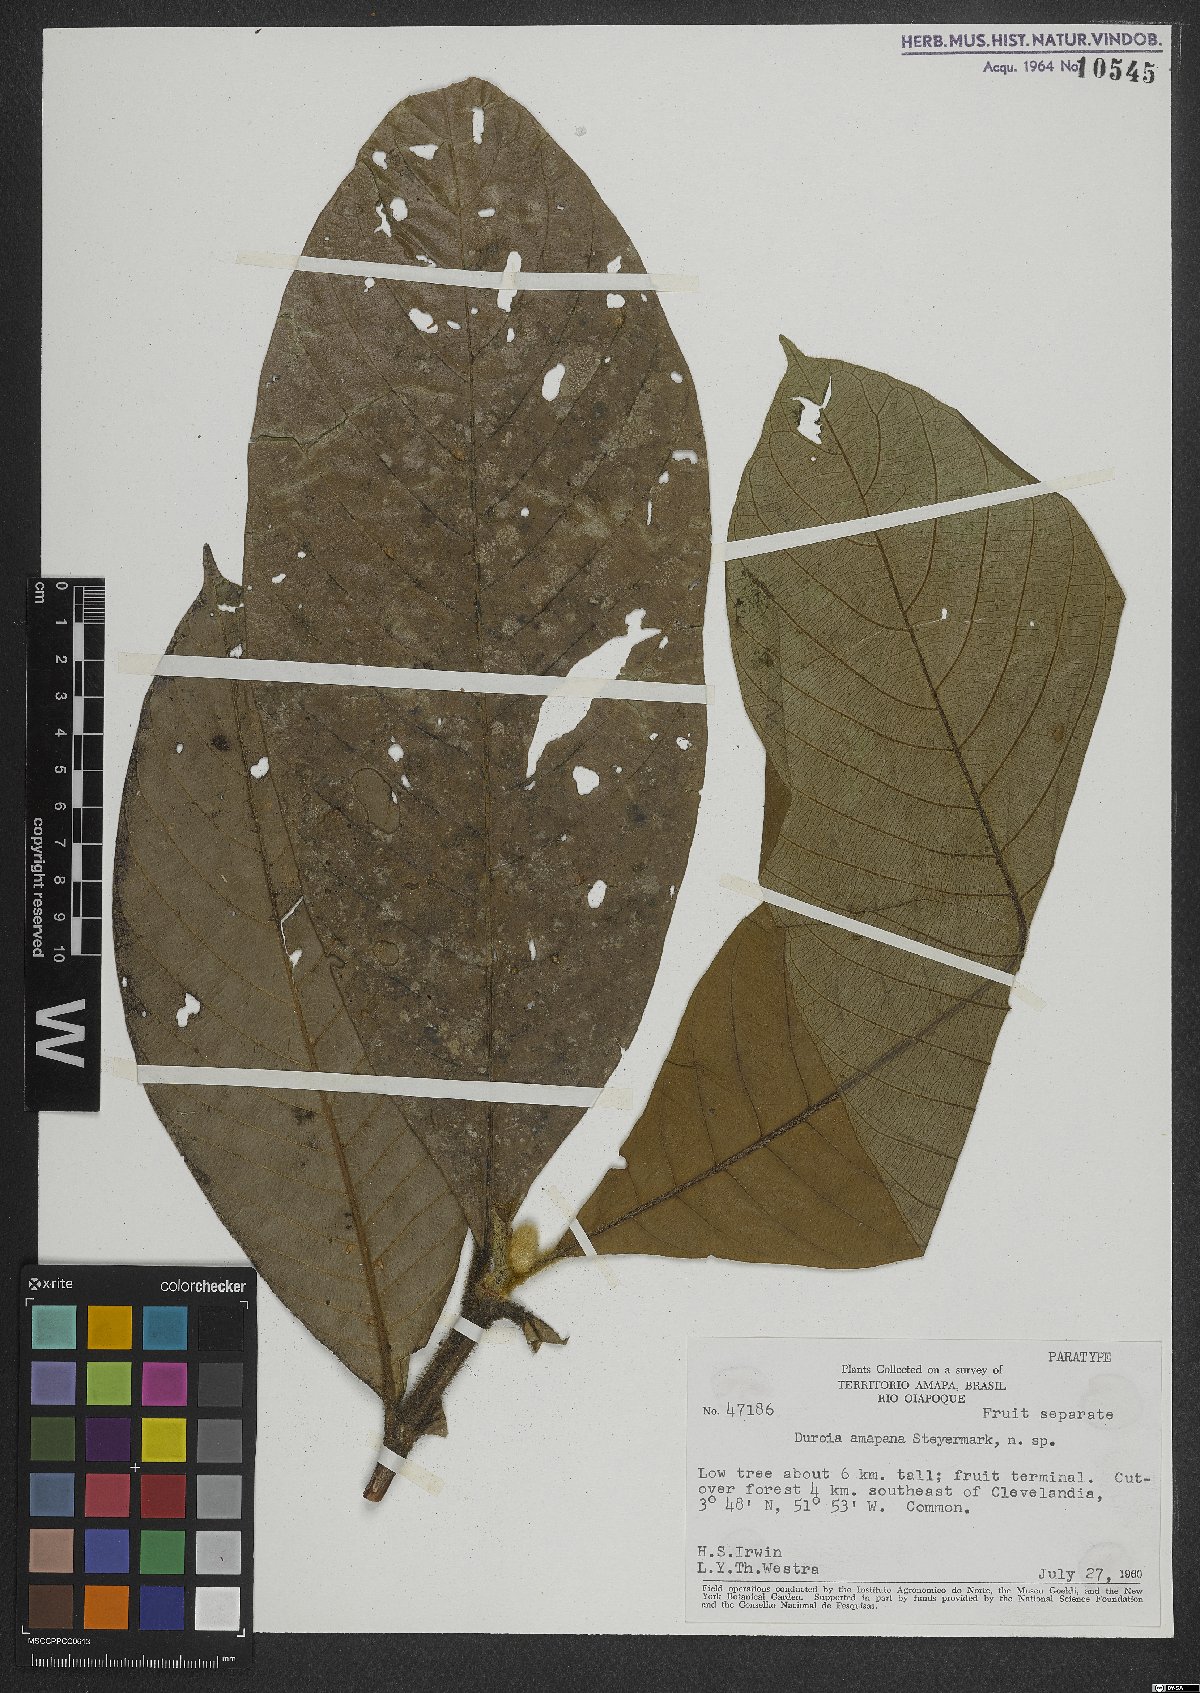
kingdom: Plantae
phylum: Tracheophyta
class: Magnoliopsida
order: Gentianales
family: Rubiaceae
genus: Duroia
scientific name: Duroia amapana
